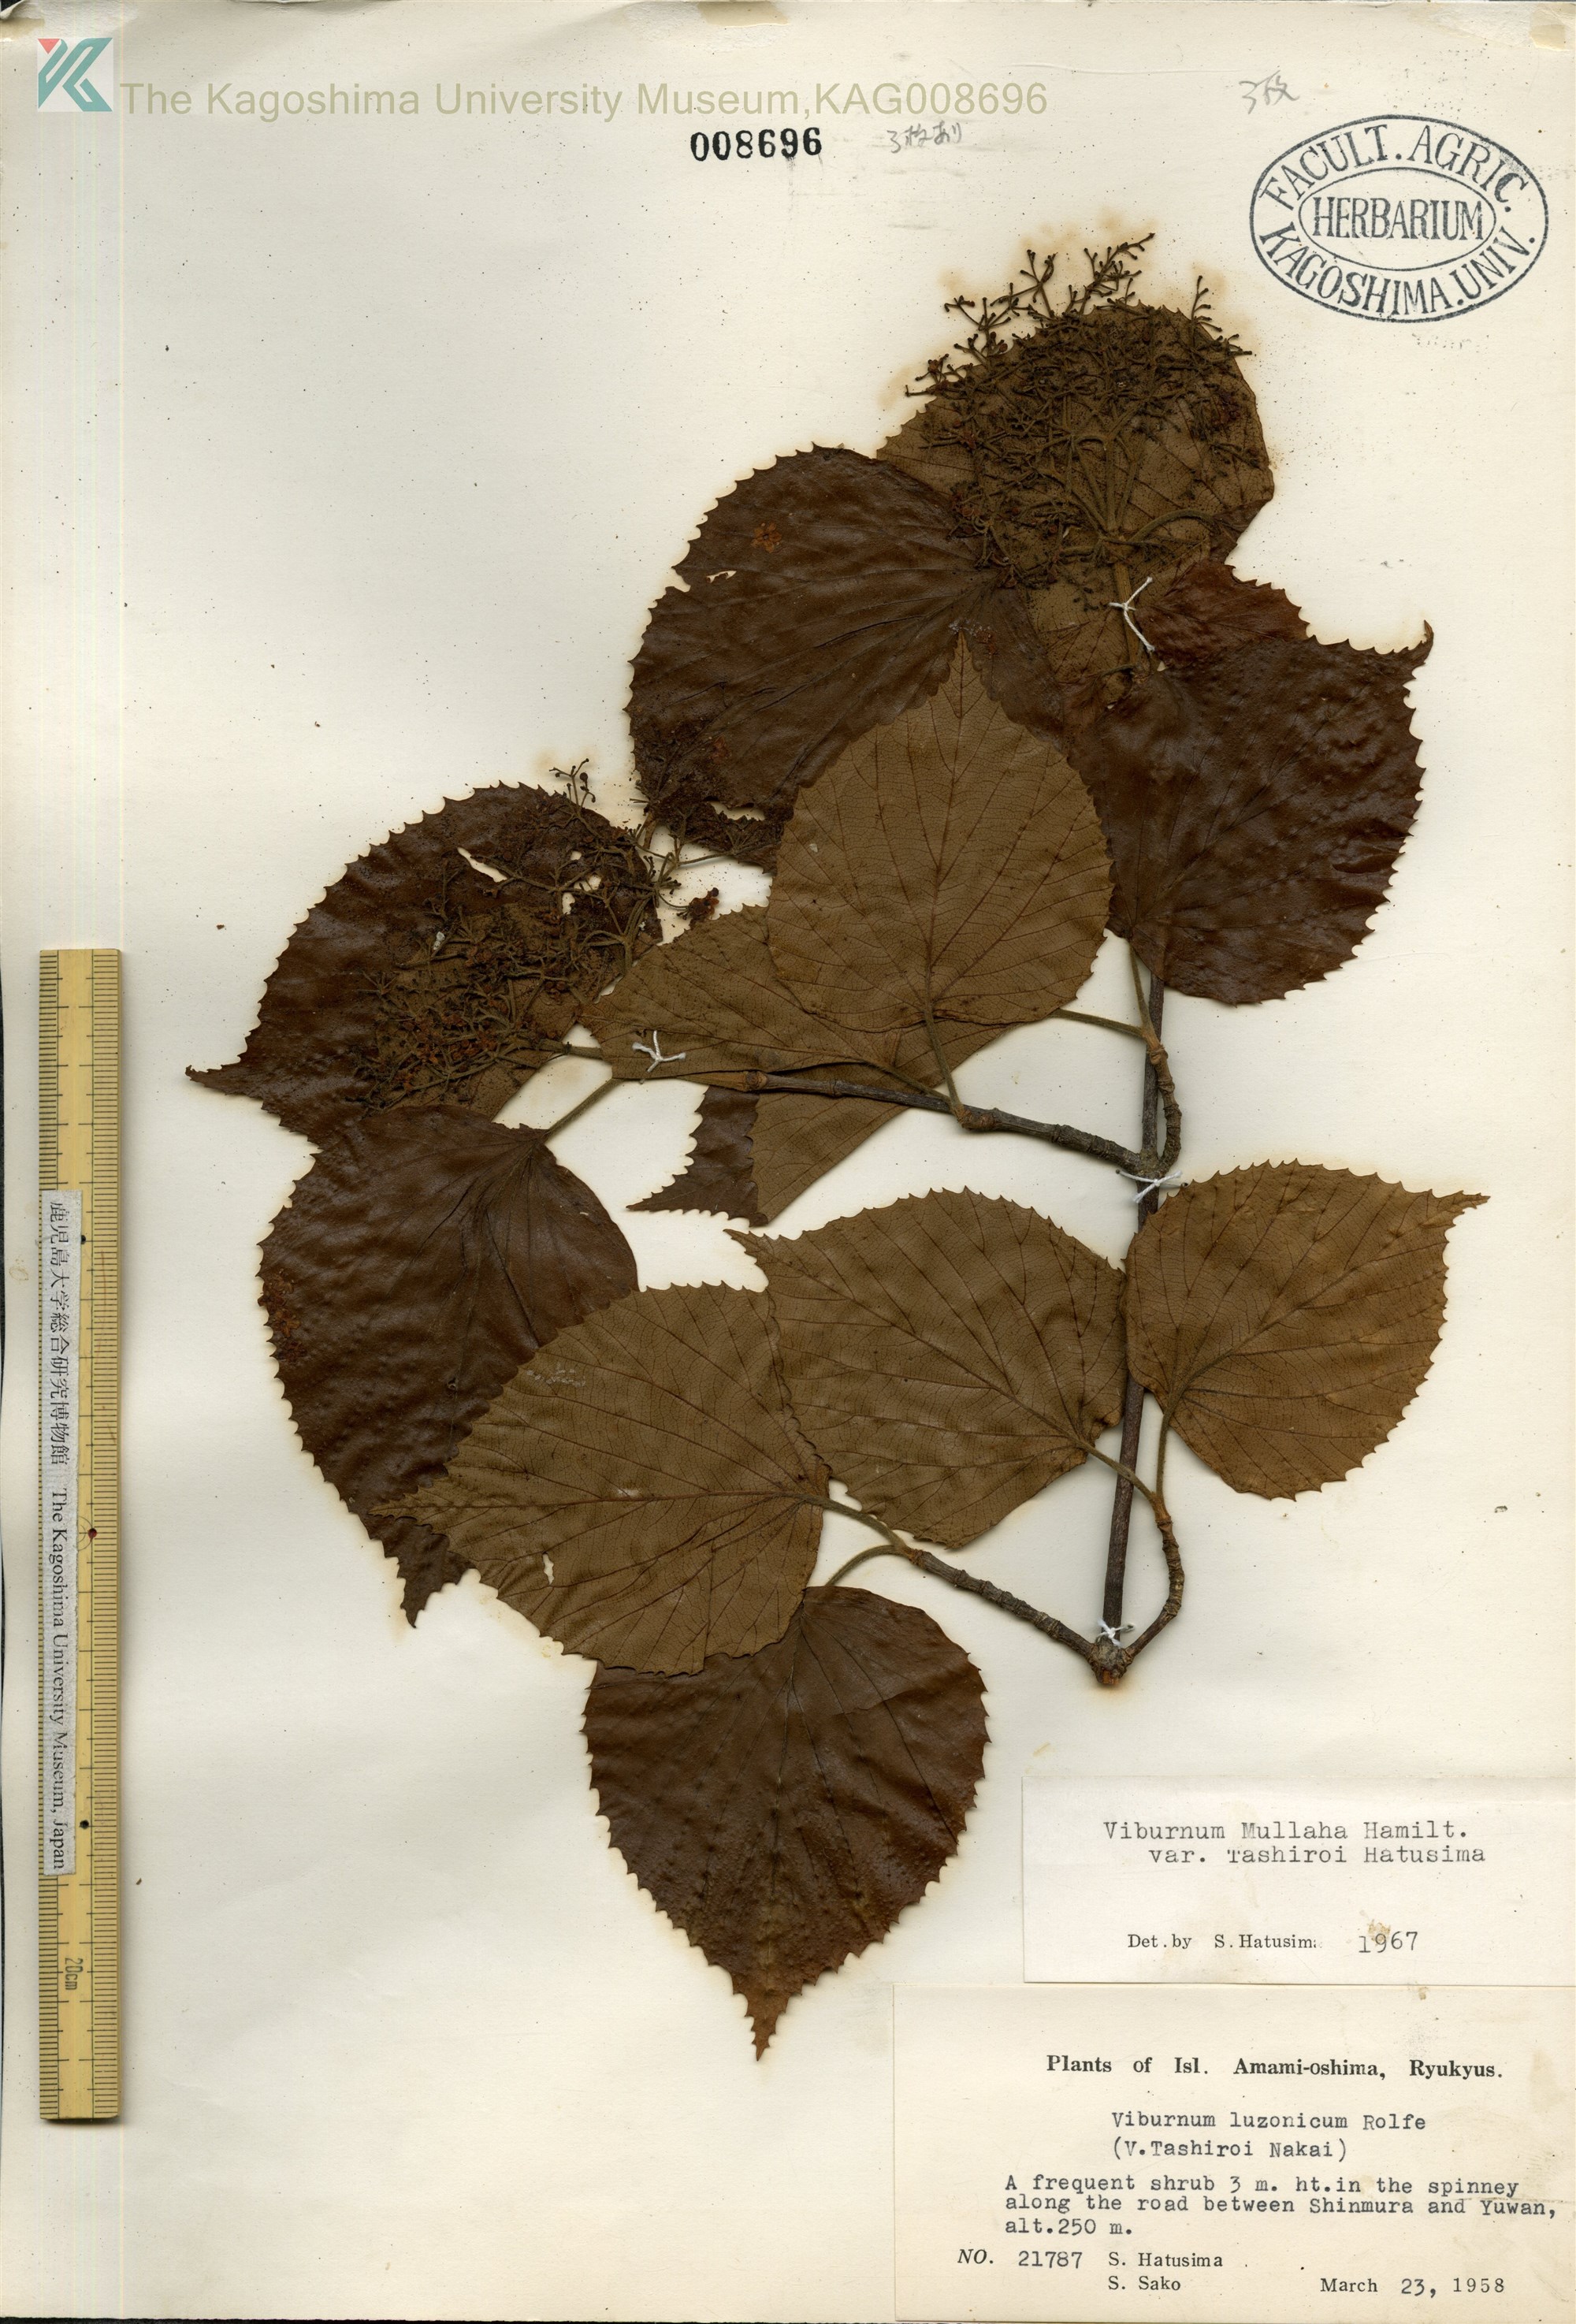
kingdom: Plantae
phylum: Tracheophyta
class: Magnoliopsida
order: Dipsacales
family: Viburnaceae
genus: Viburnum
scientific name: Viburnum luzonicum
